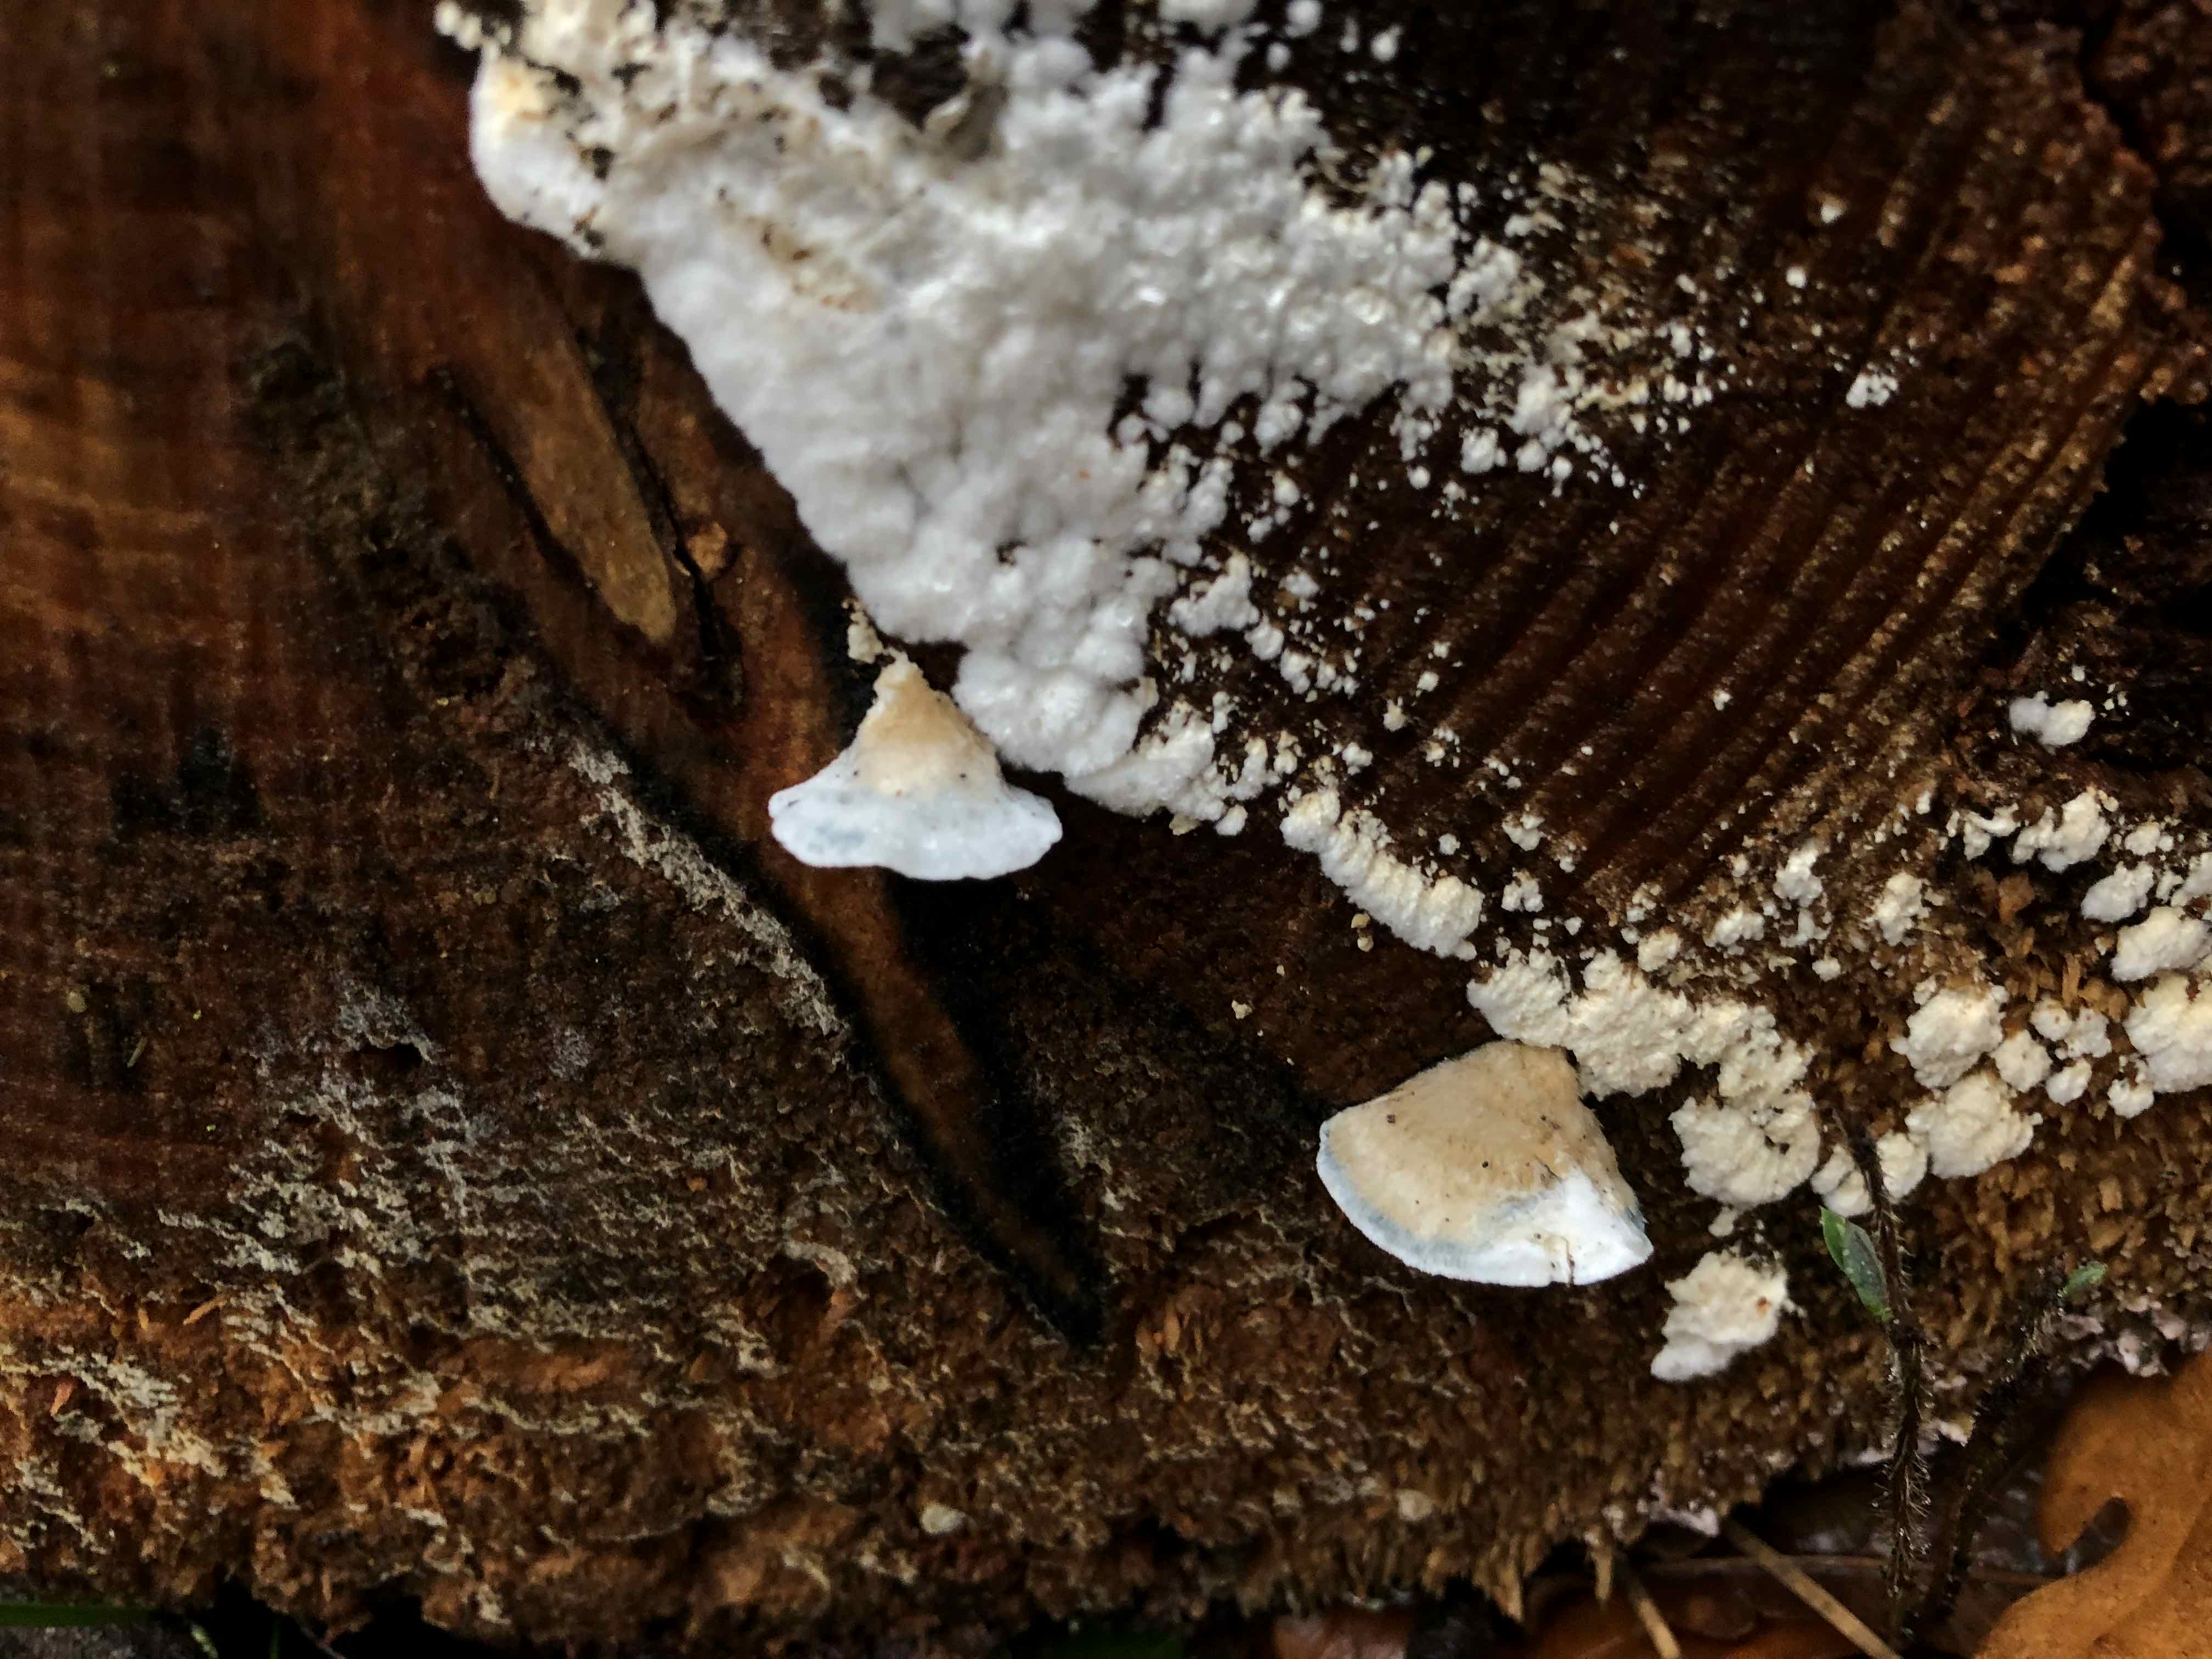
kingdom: Fungi
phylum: Basidiomycota
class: Agaricomycetes
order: Polyporales
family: Dacryobolaceae
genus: Postia
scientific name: Postia
